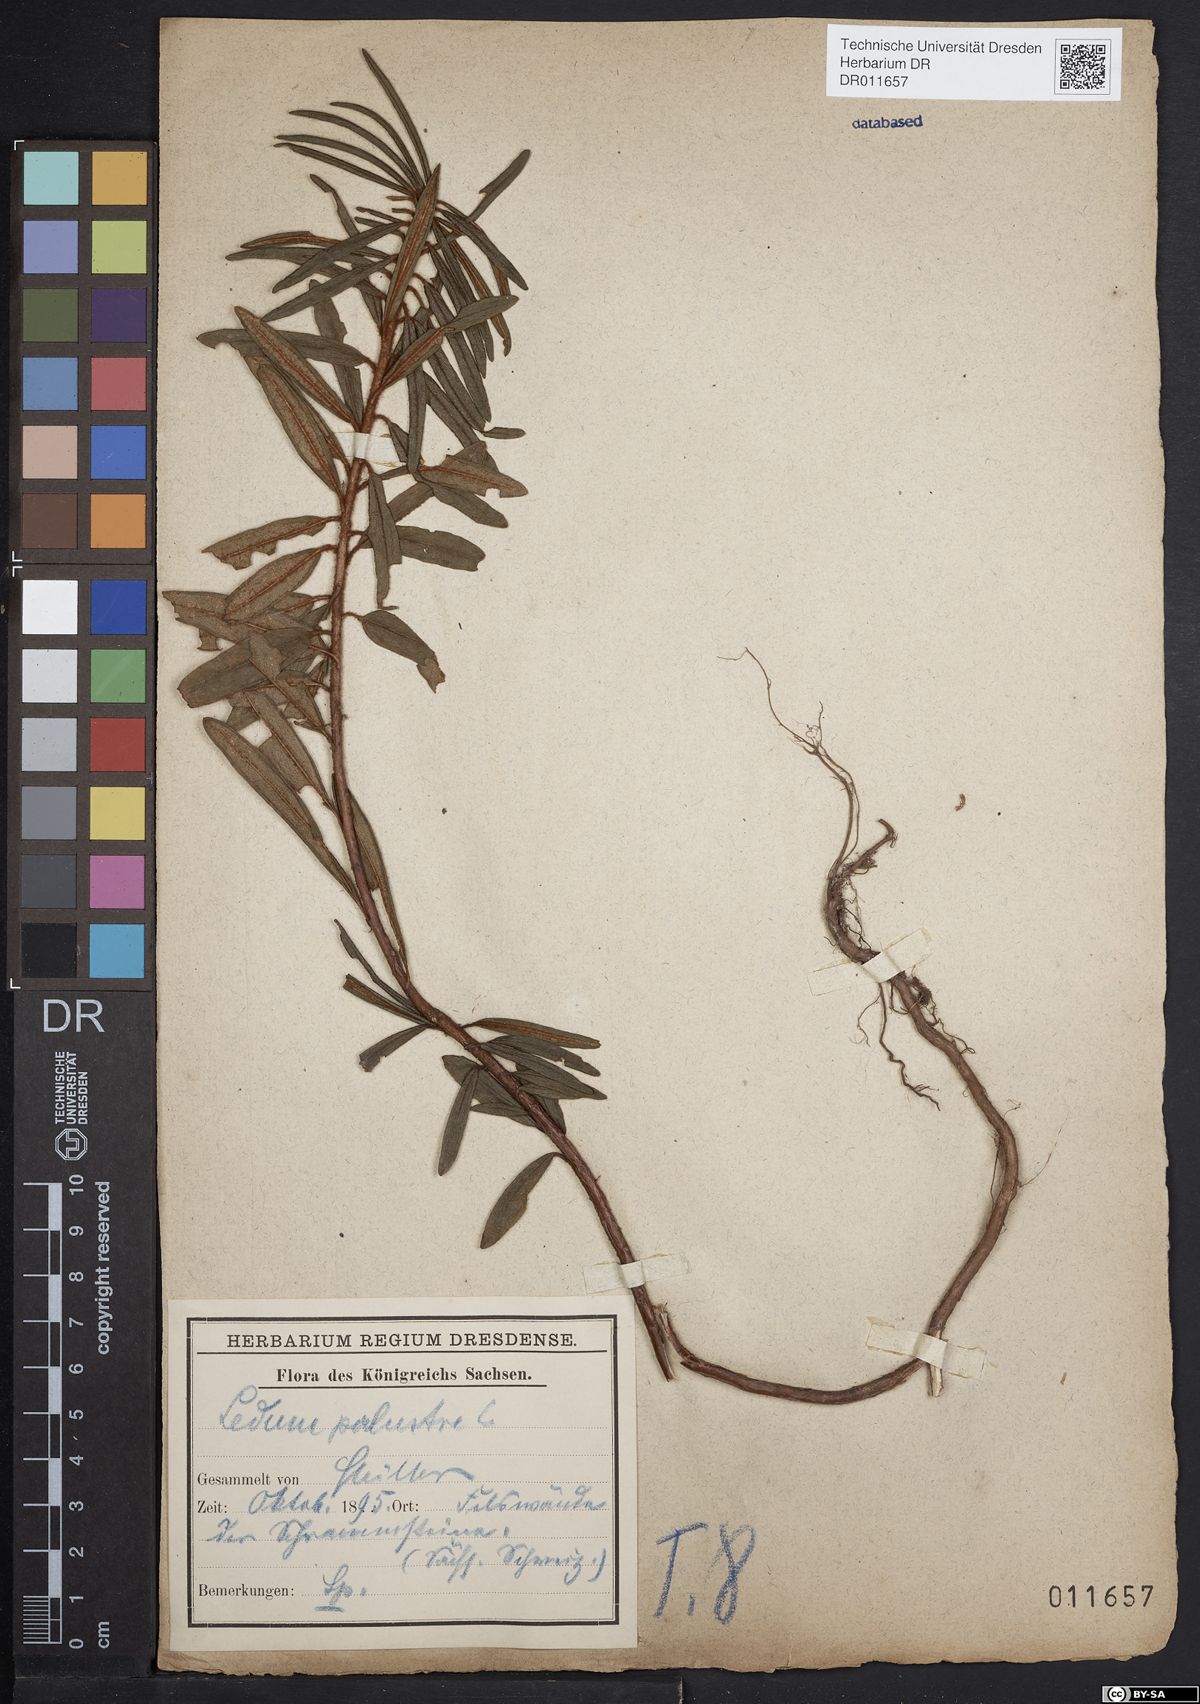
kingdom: Plantae
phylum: Tracheophyta
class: Magnoliopsida
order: Ericales
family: Ericaceae
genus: Rhododendron
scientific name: Rhododendron tomentosum
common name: Marsh labrador tea
